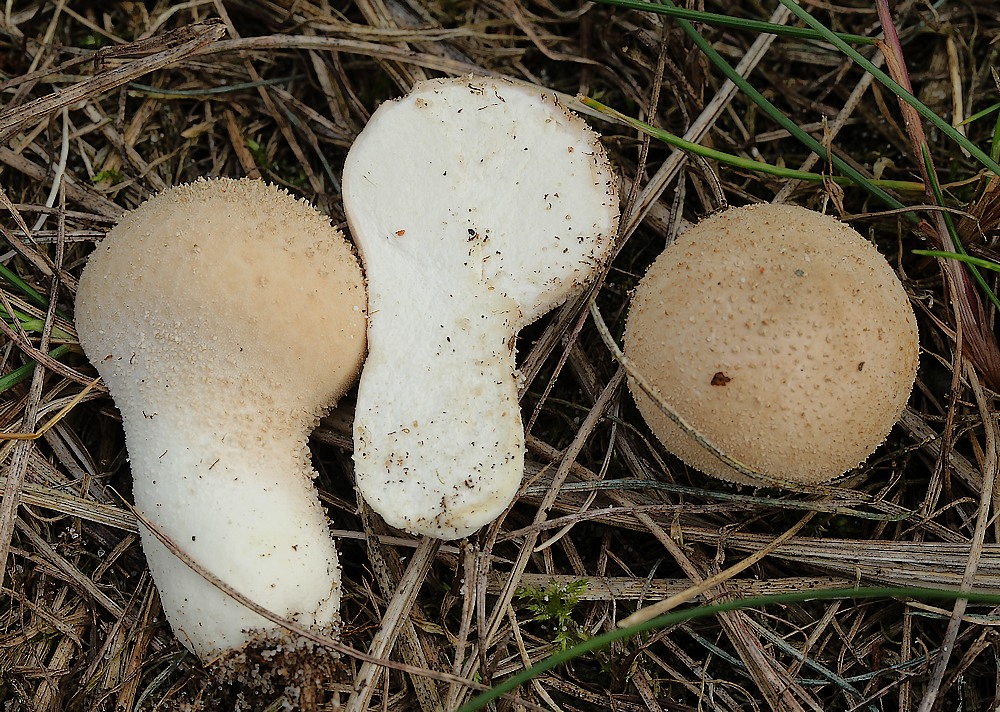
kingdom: Fungi
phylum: Basidiomycota
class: Agaricomycetes
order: Agaricales
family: Lycoperdaceae
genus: Lycoperdon
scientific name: Lycoperdon lividum
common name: mark-støvbold
